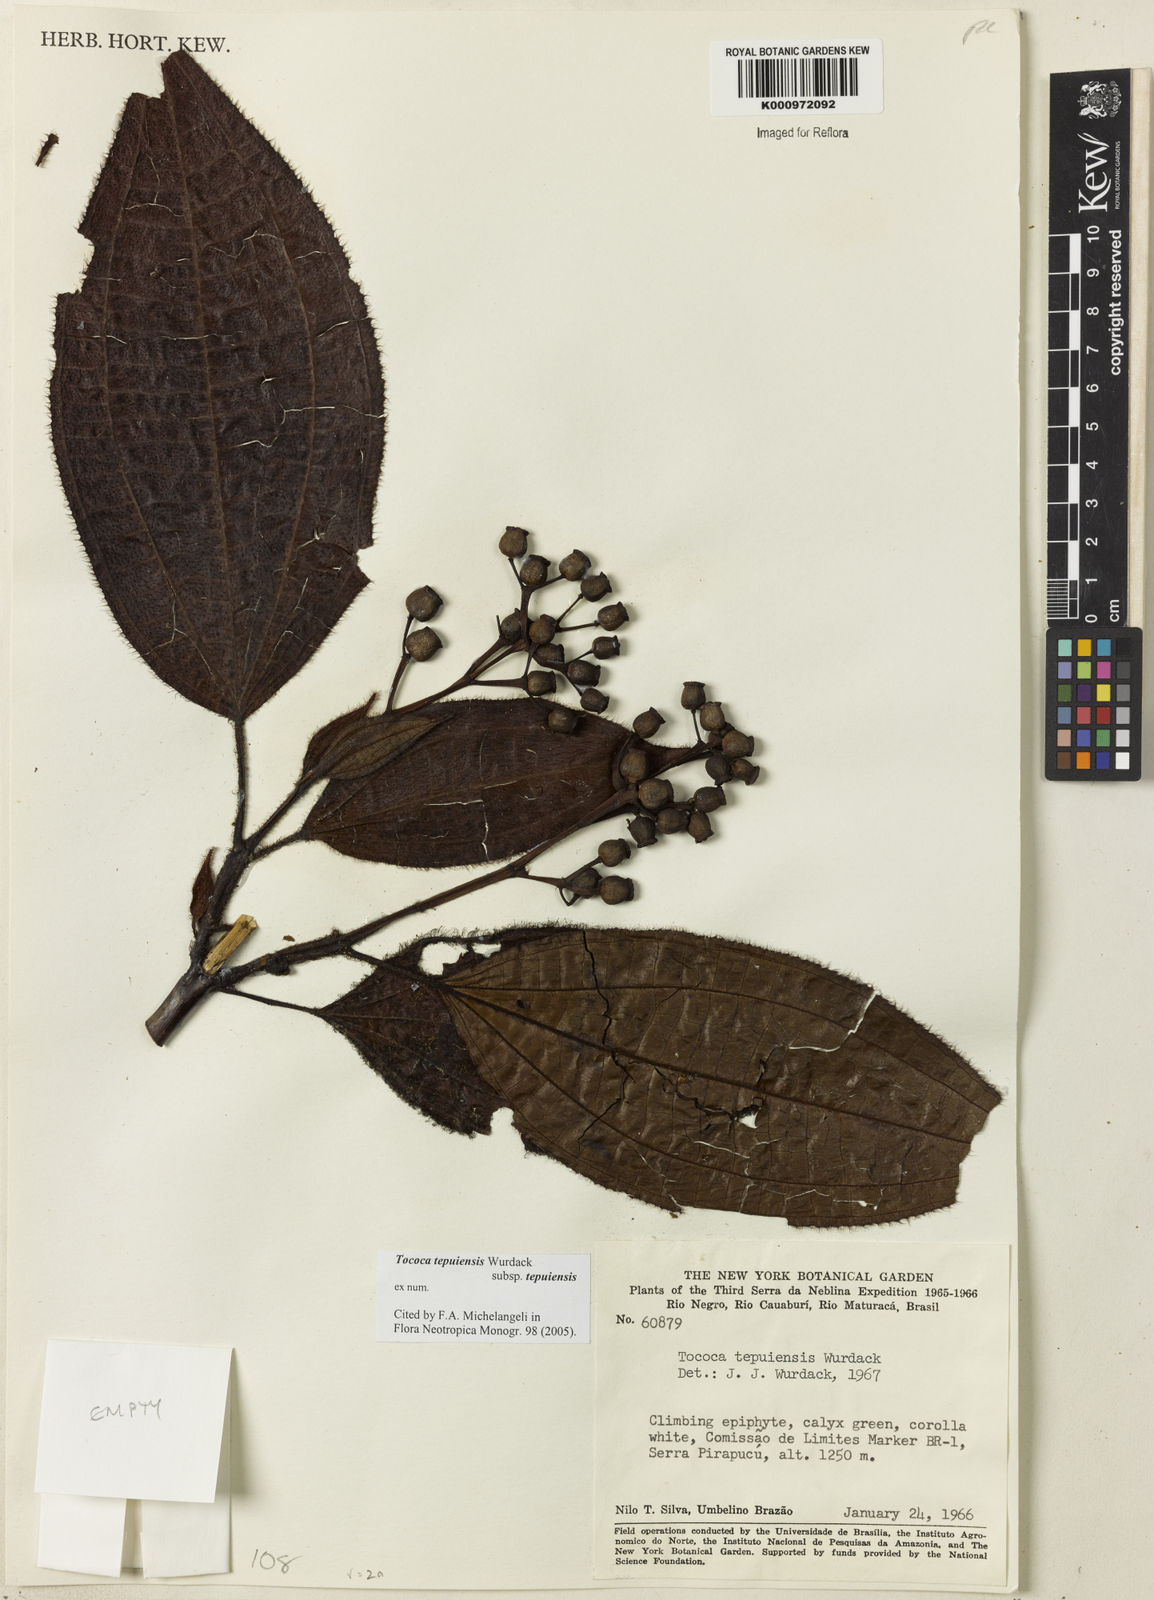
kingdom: Plantae
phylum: Tracheophyta
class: Magnoliopsida
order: Myrtales
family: Melastomataceae
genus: Miconia
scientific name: Miconia tepuiensis
